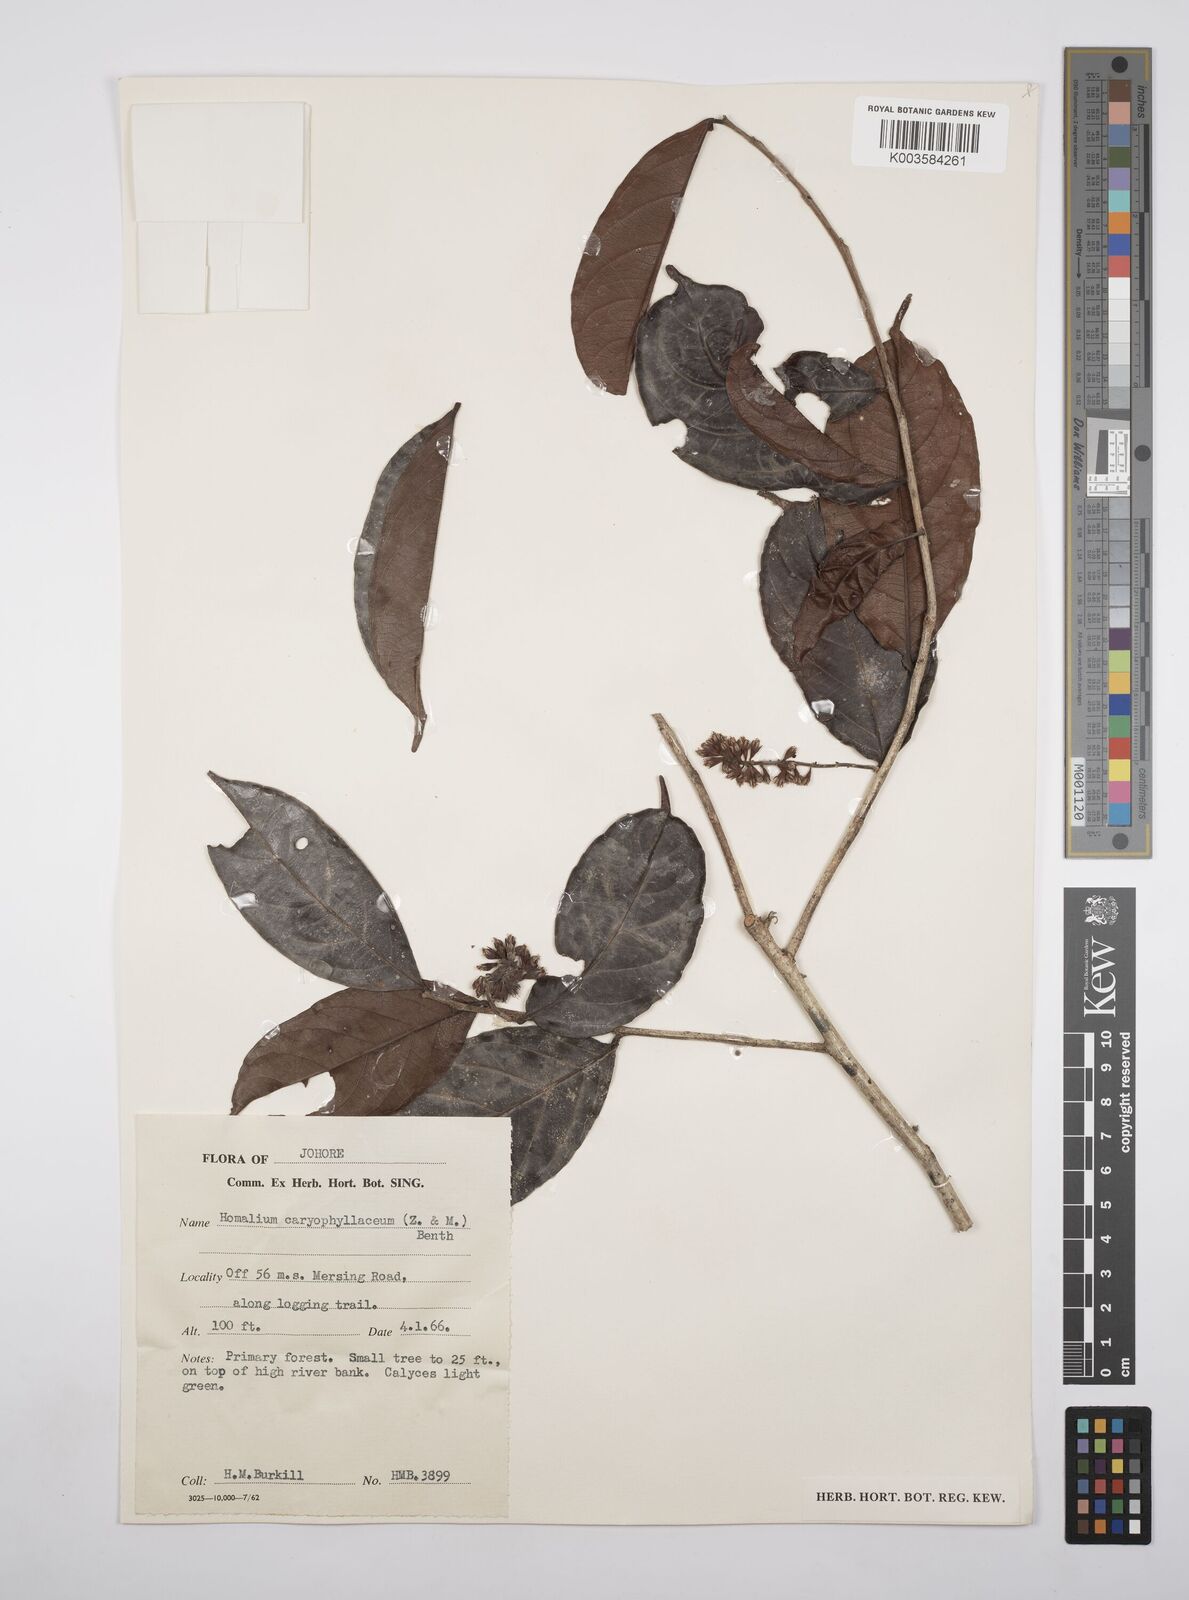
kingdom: Plantae
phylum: Tracheophyta
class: Magnoliopsida
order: Malpighiales
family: Salicaceae
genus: Homalium
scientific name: Homalium caryophyllaceum
